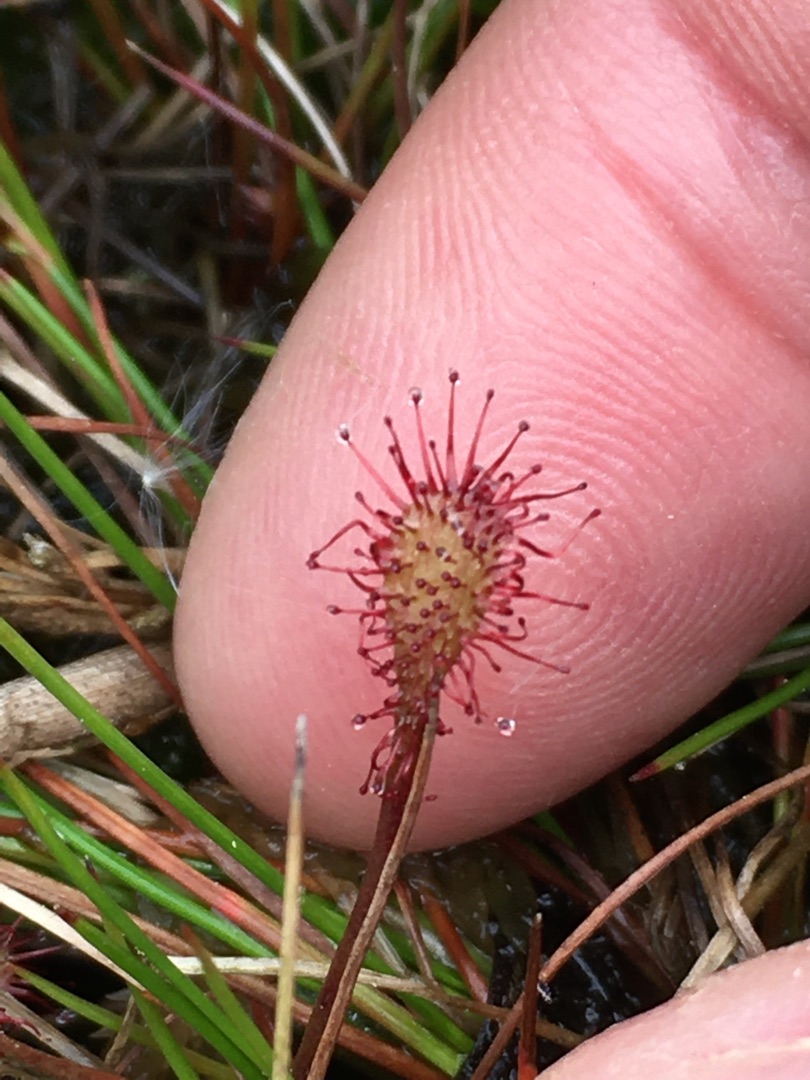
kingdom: Plantae
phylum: Tracheophyta
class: Magnoliopsida
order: Caryophyllales
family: Droseraceae
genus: Drosera
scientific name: Drosera intermedia
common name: Liden soldug
